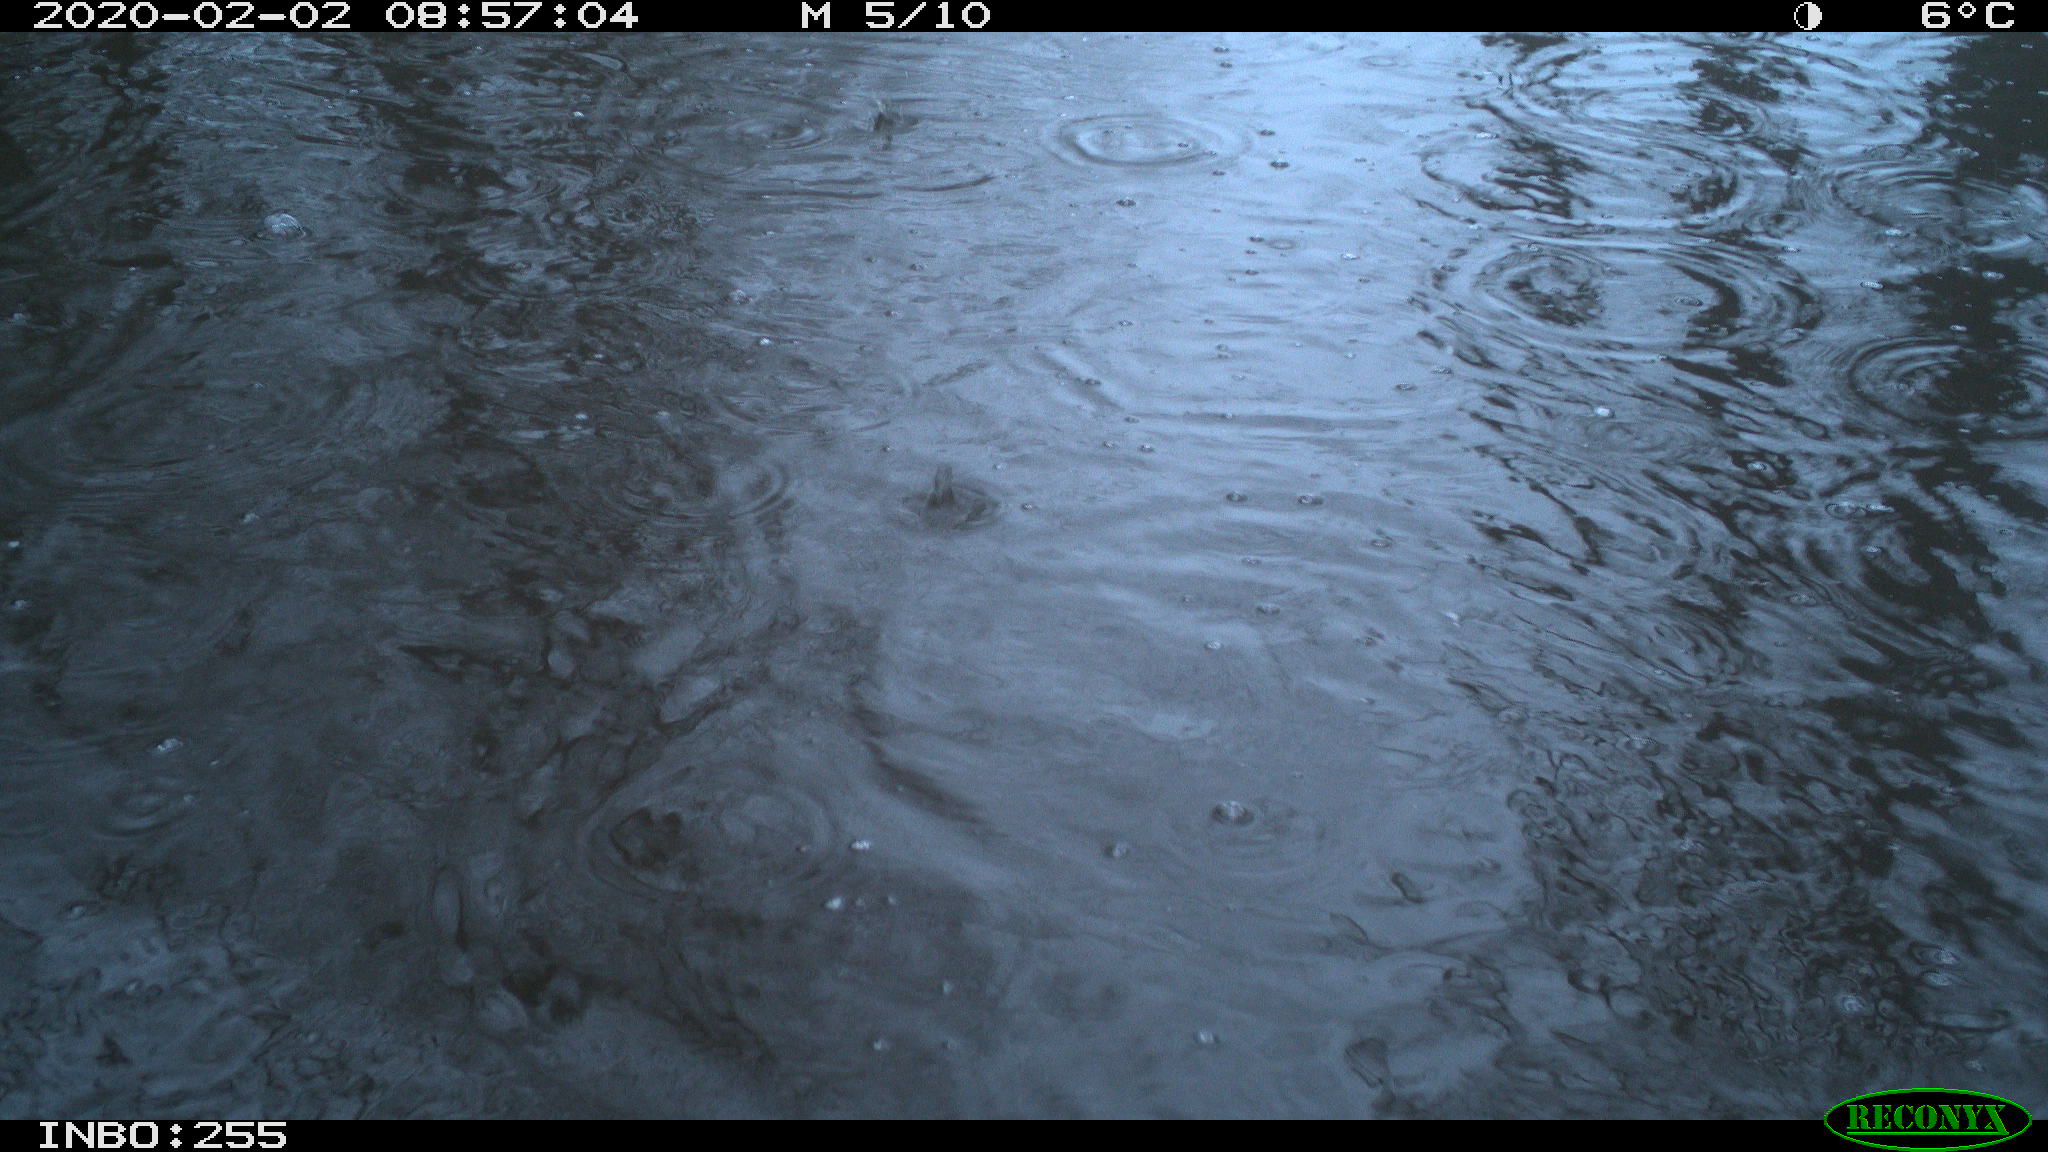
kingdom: Animalia
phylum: Chordata
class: Aves
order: Gruiformes
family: Rallidae
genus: Fulica
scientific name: Fulica atra
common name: Eurasian coot
